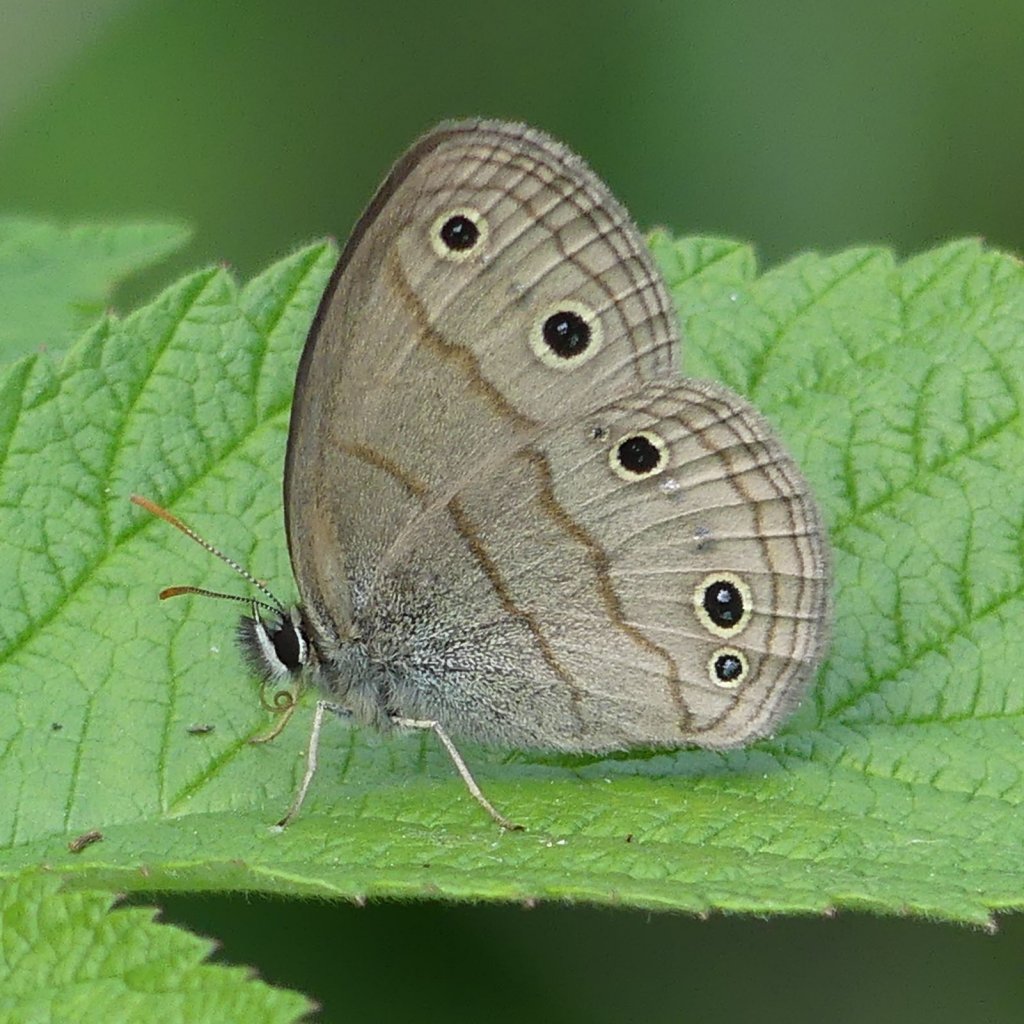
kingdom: Animalia
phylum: Arthropoda
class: Insecta
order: Lepidoptera
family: Nymphalidae
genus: Euptychia
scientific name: Euptychia cymela
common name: Little Wood Satyr
